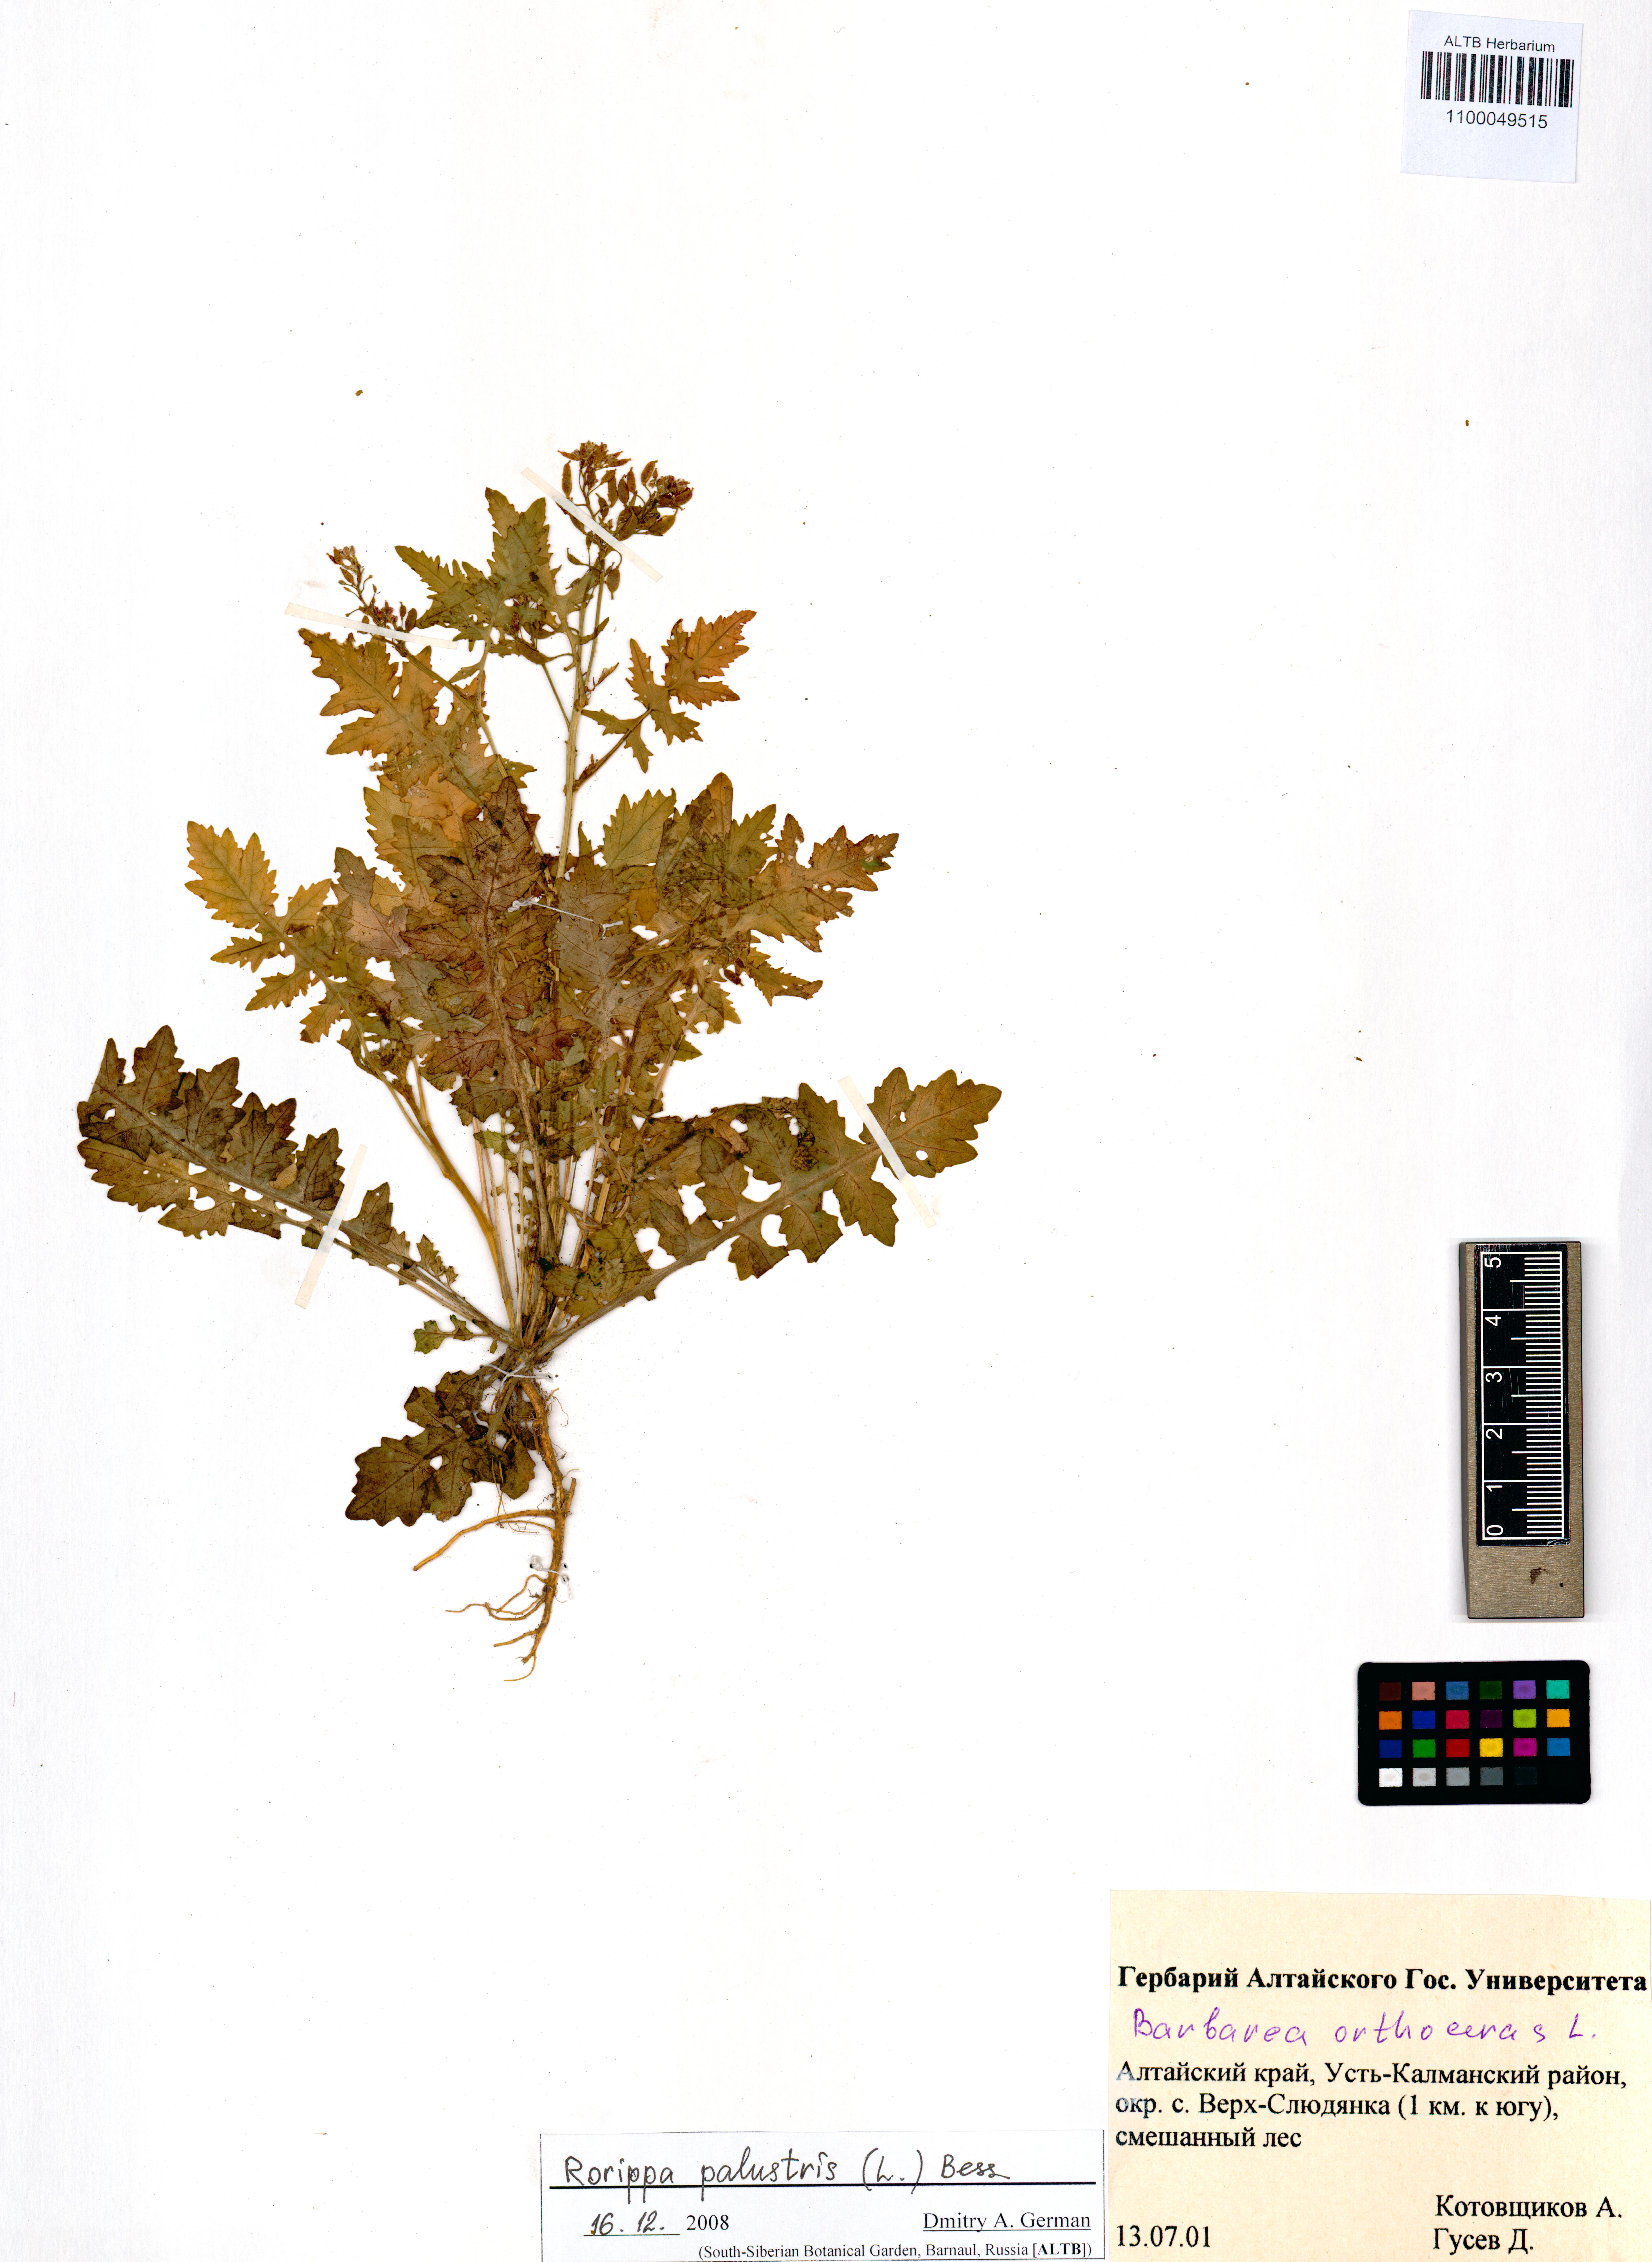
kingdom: Plantae
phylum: Tracheophyta
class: Magnoliopsida
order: Brassicales
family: Brassicaceae
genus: Rorippa
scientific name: Rorippa palustris
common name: Marsh yellow-cress
